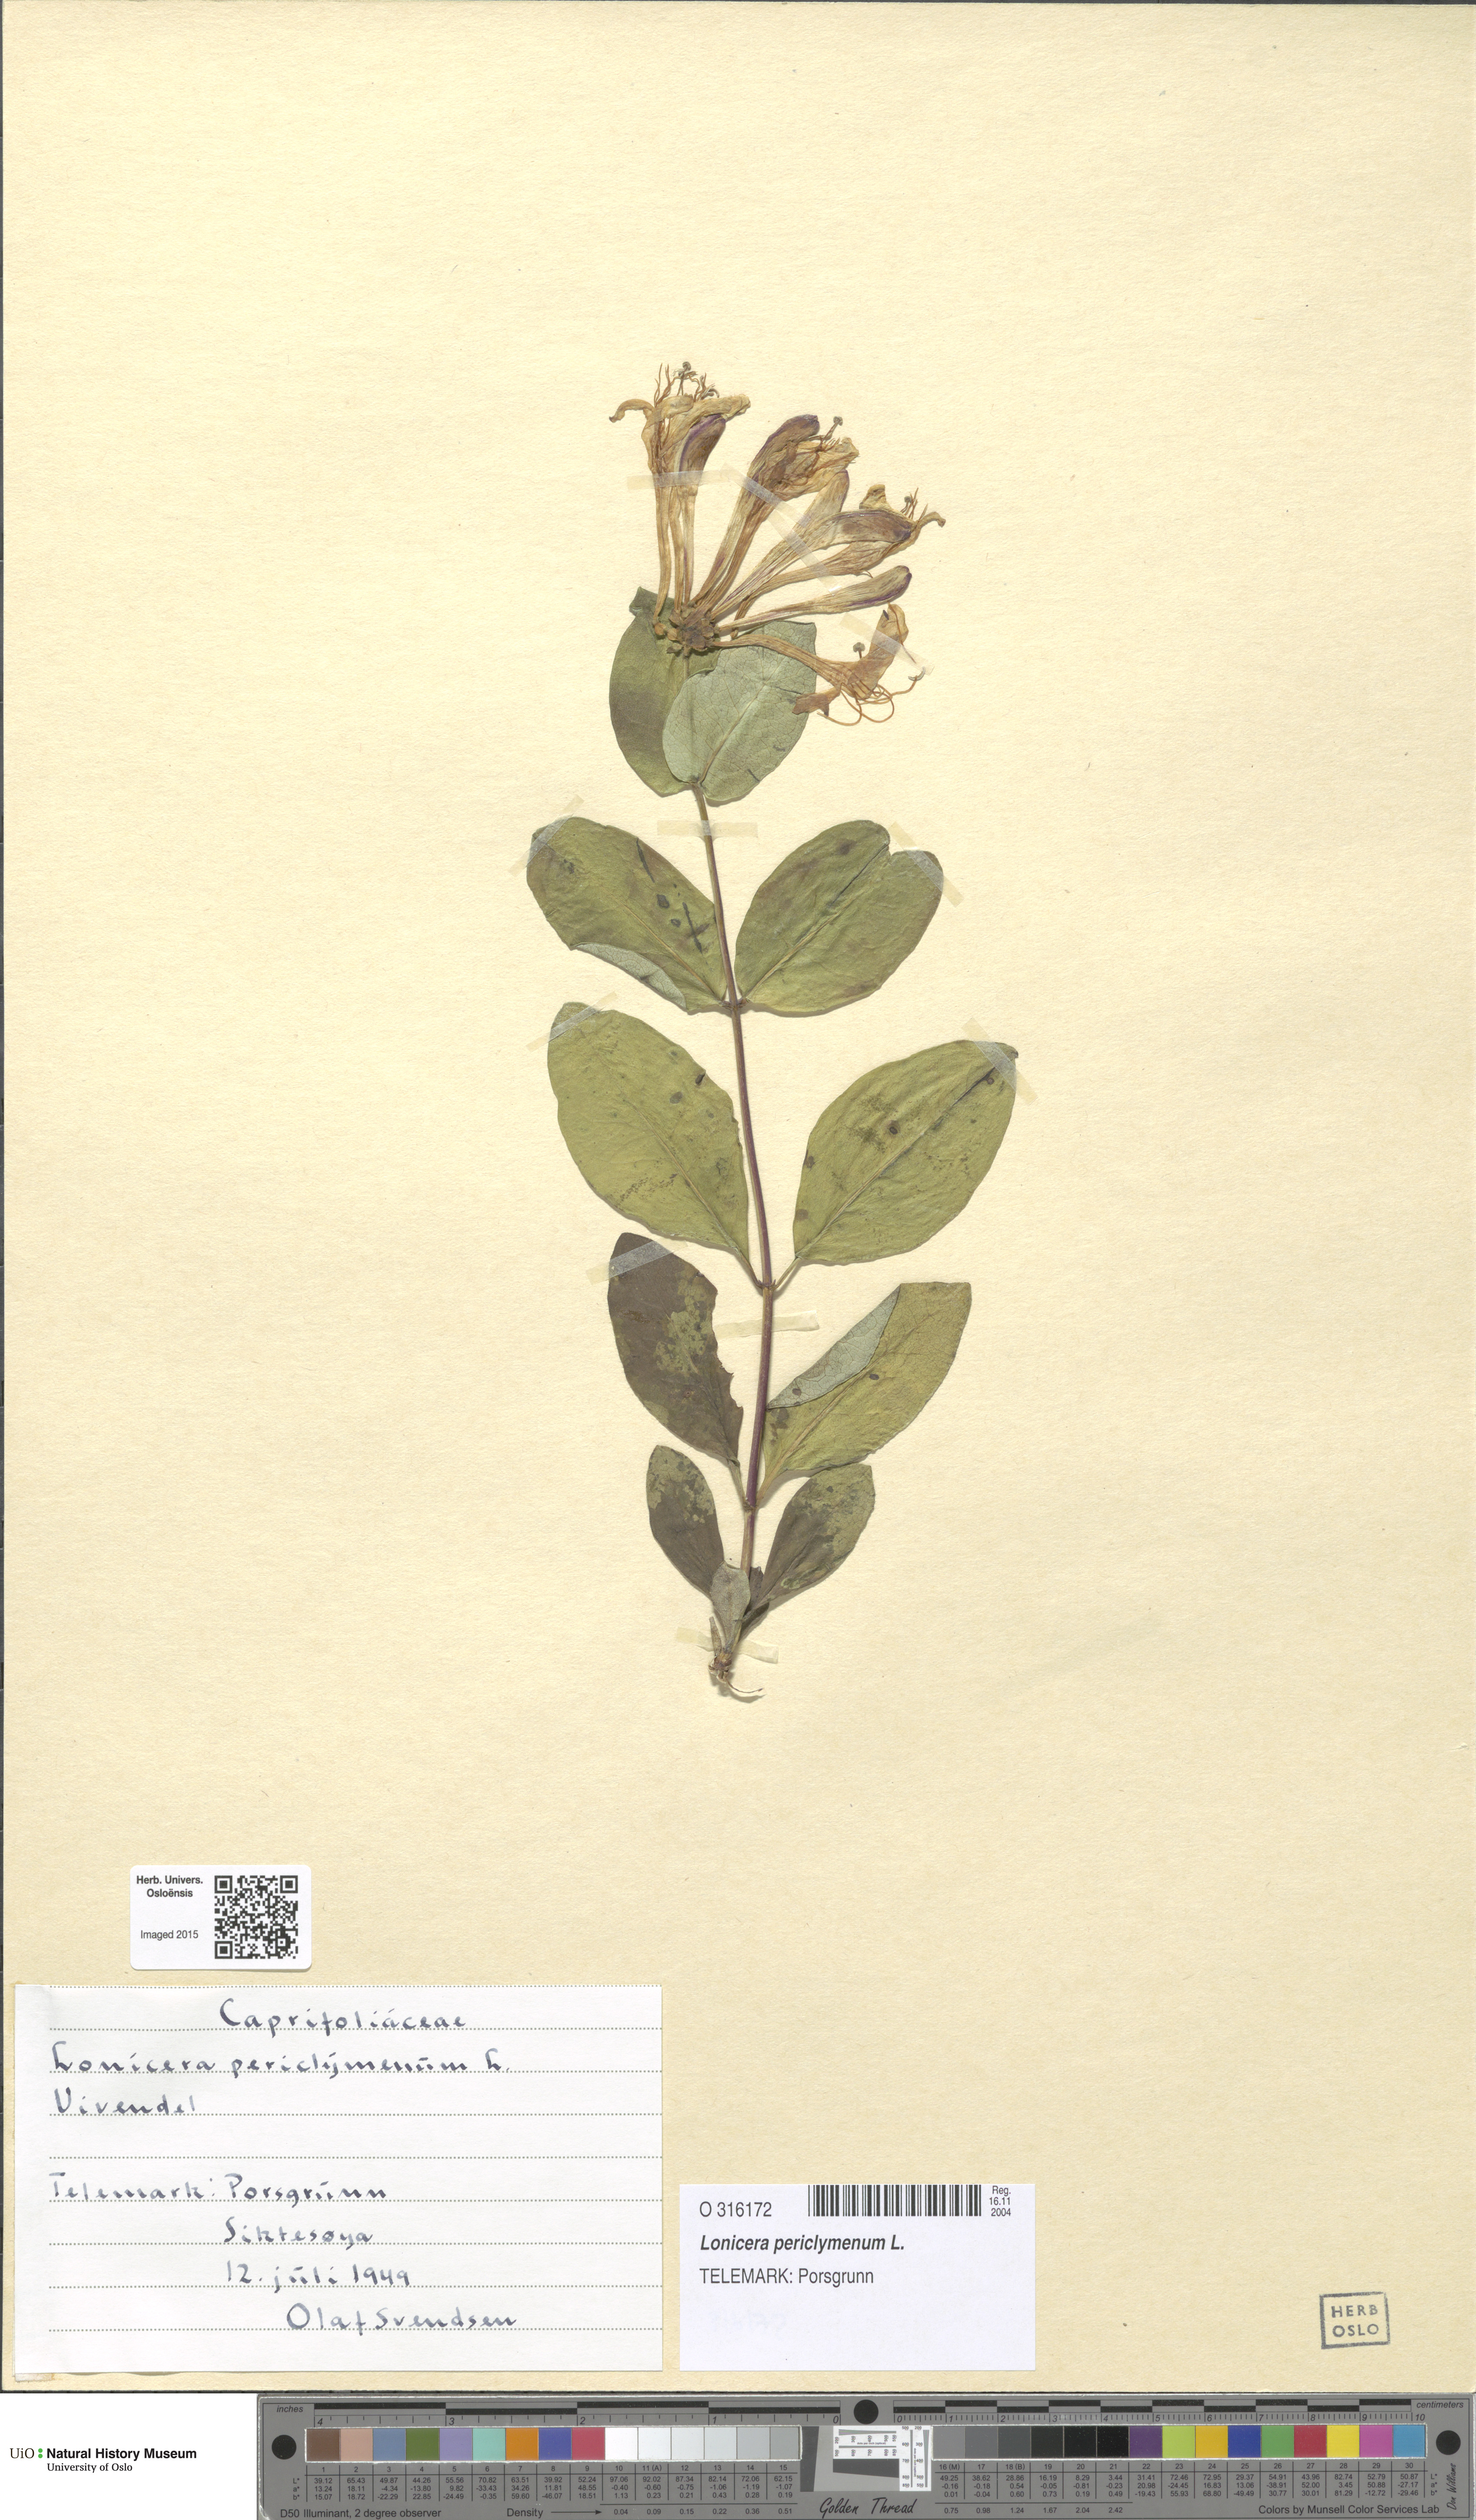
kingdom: Plantae
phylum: Tracheophyta
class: Magnoliopsida
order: Dipsacales
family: Caprifoliaceae
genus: Lonicera
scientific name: Lonicera periclymenum
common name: European honeysuckle
